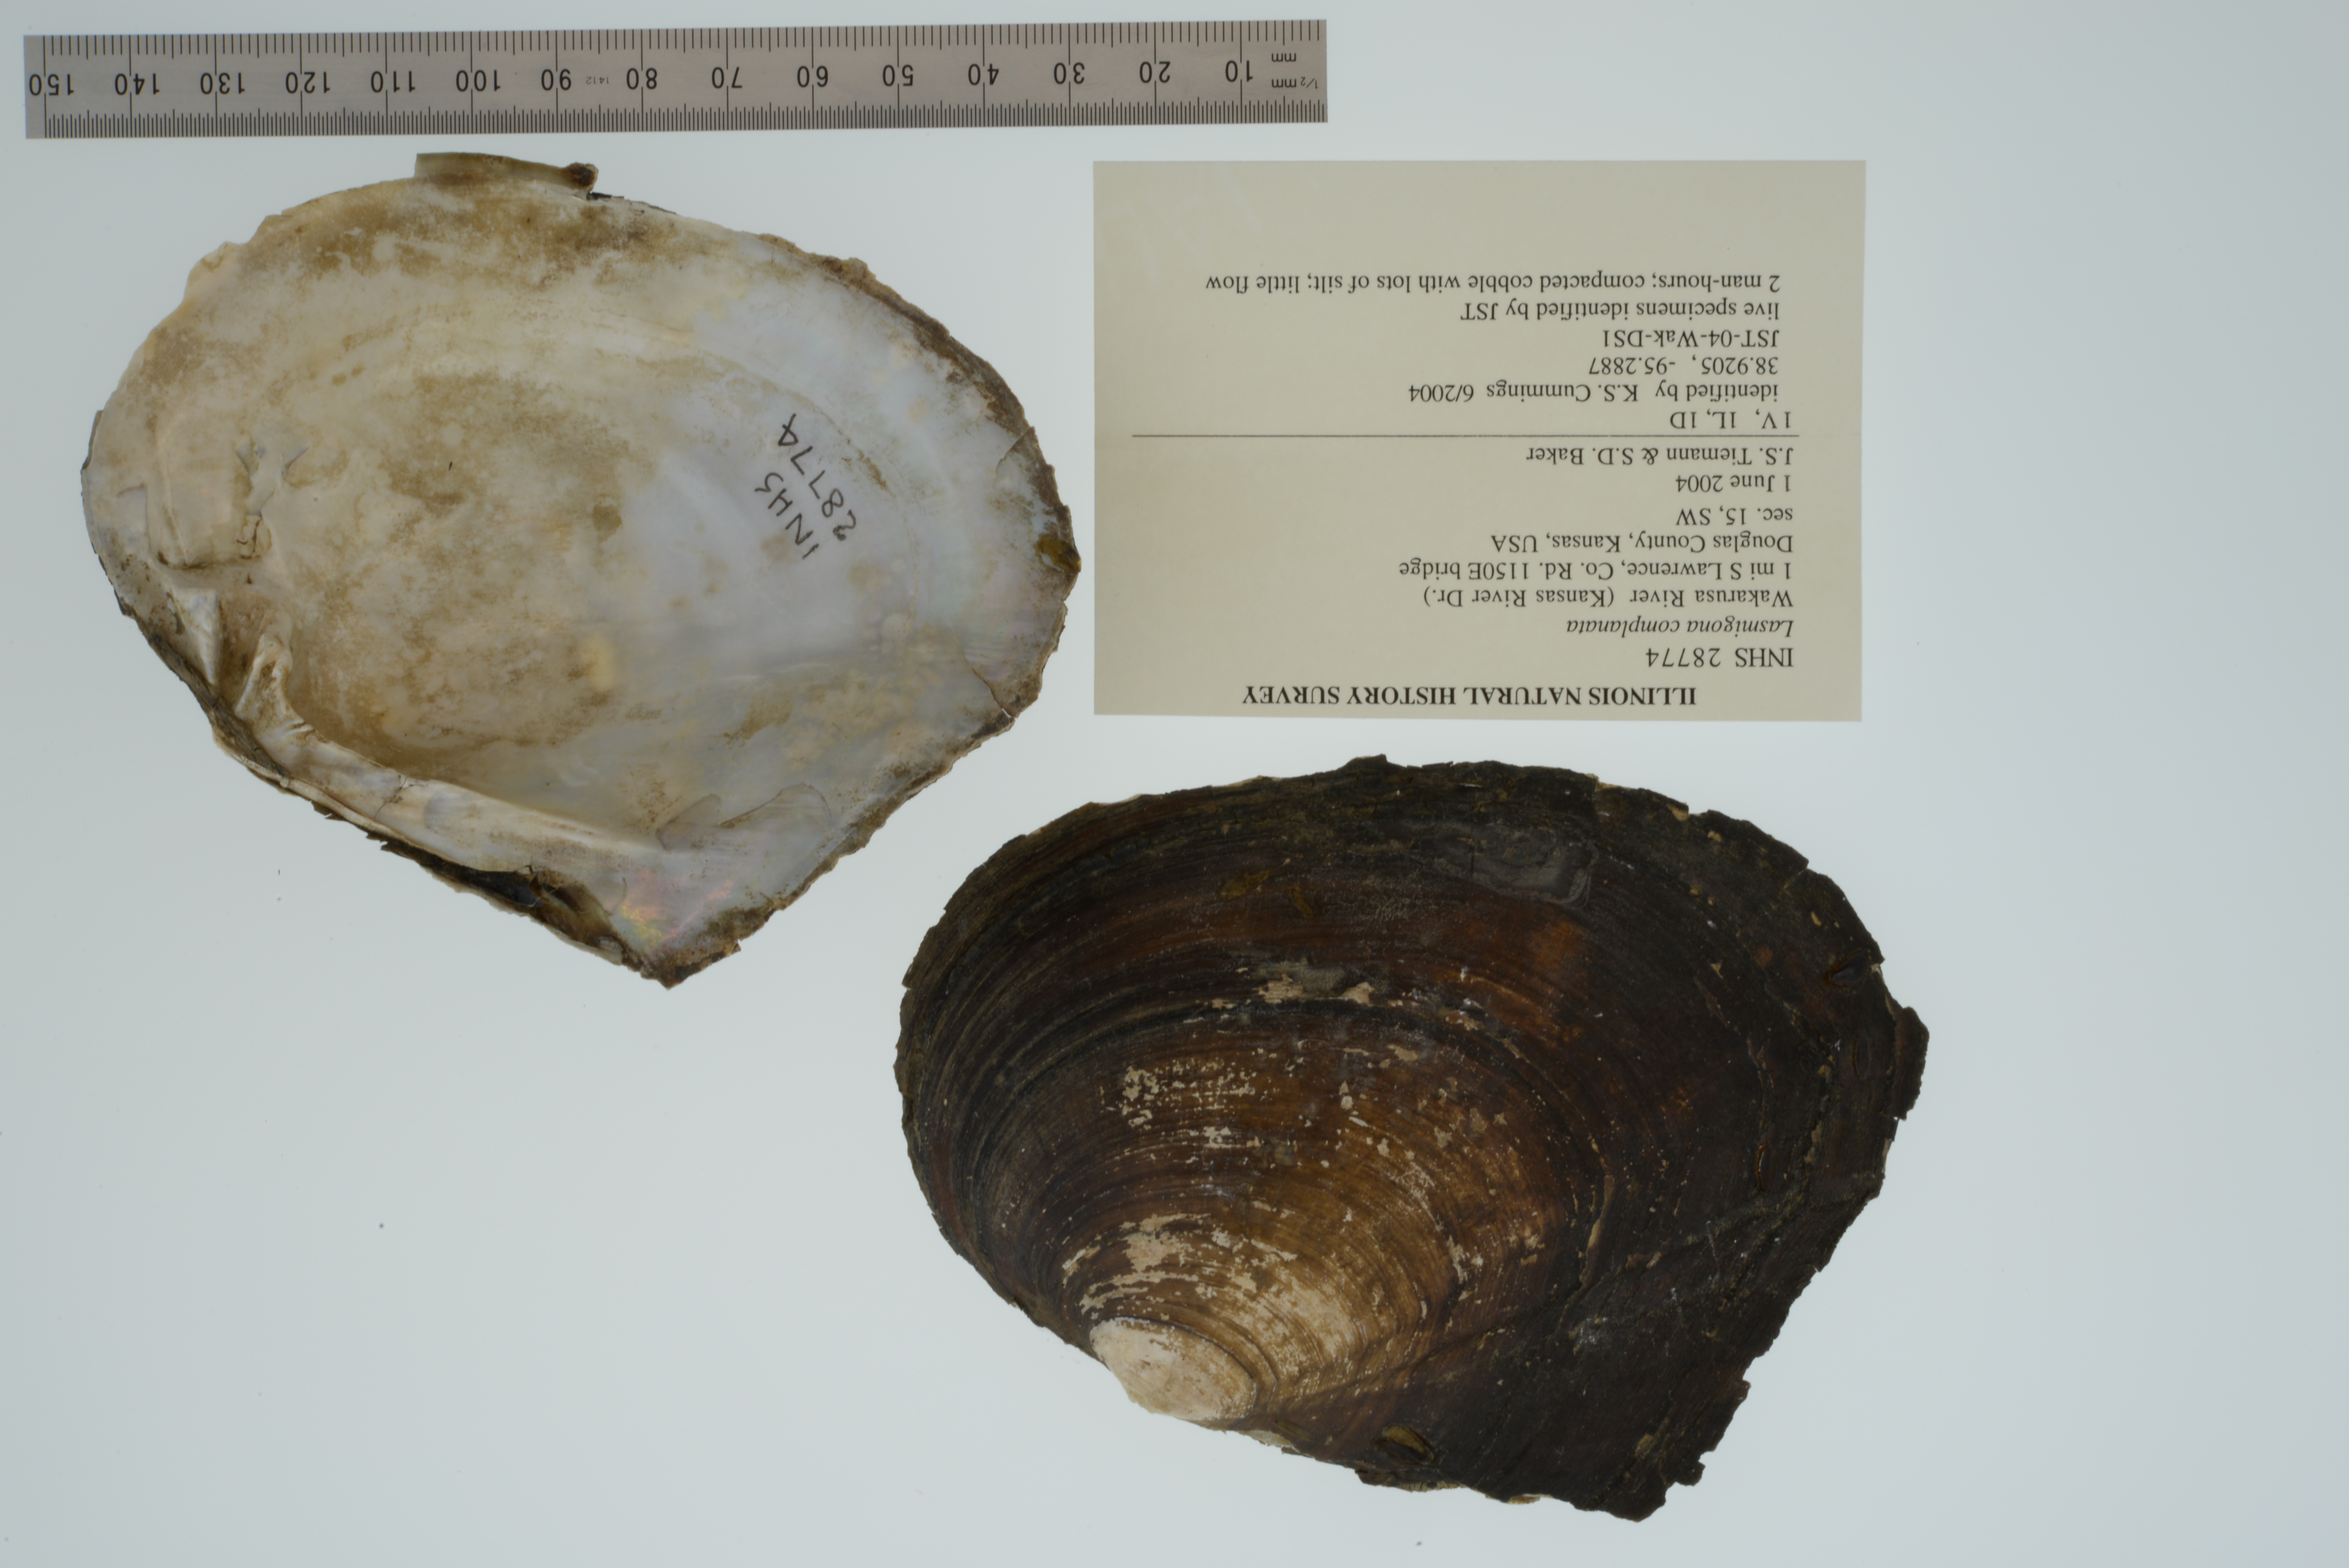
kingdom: Animalia
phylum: Mollusca
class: Bivalvia
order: Unionida
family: Unionidae
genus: Lasmigona
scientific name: Lasmigona complanata
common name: White heelsplitter
